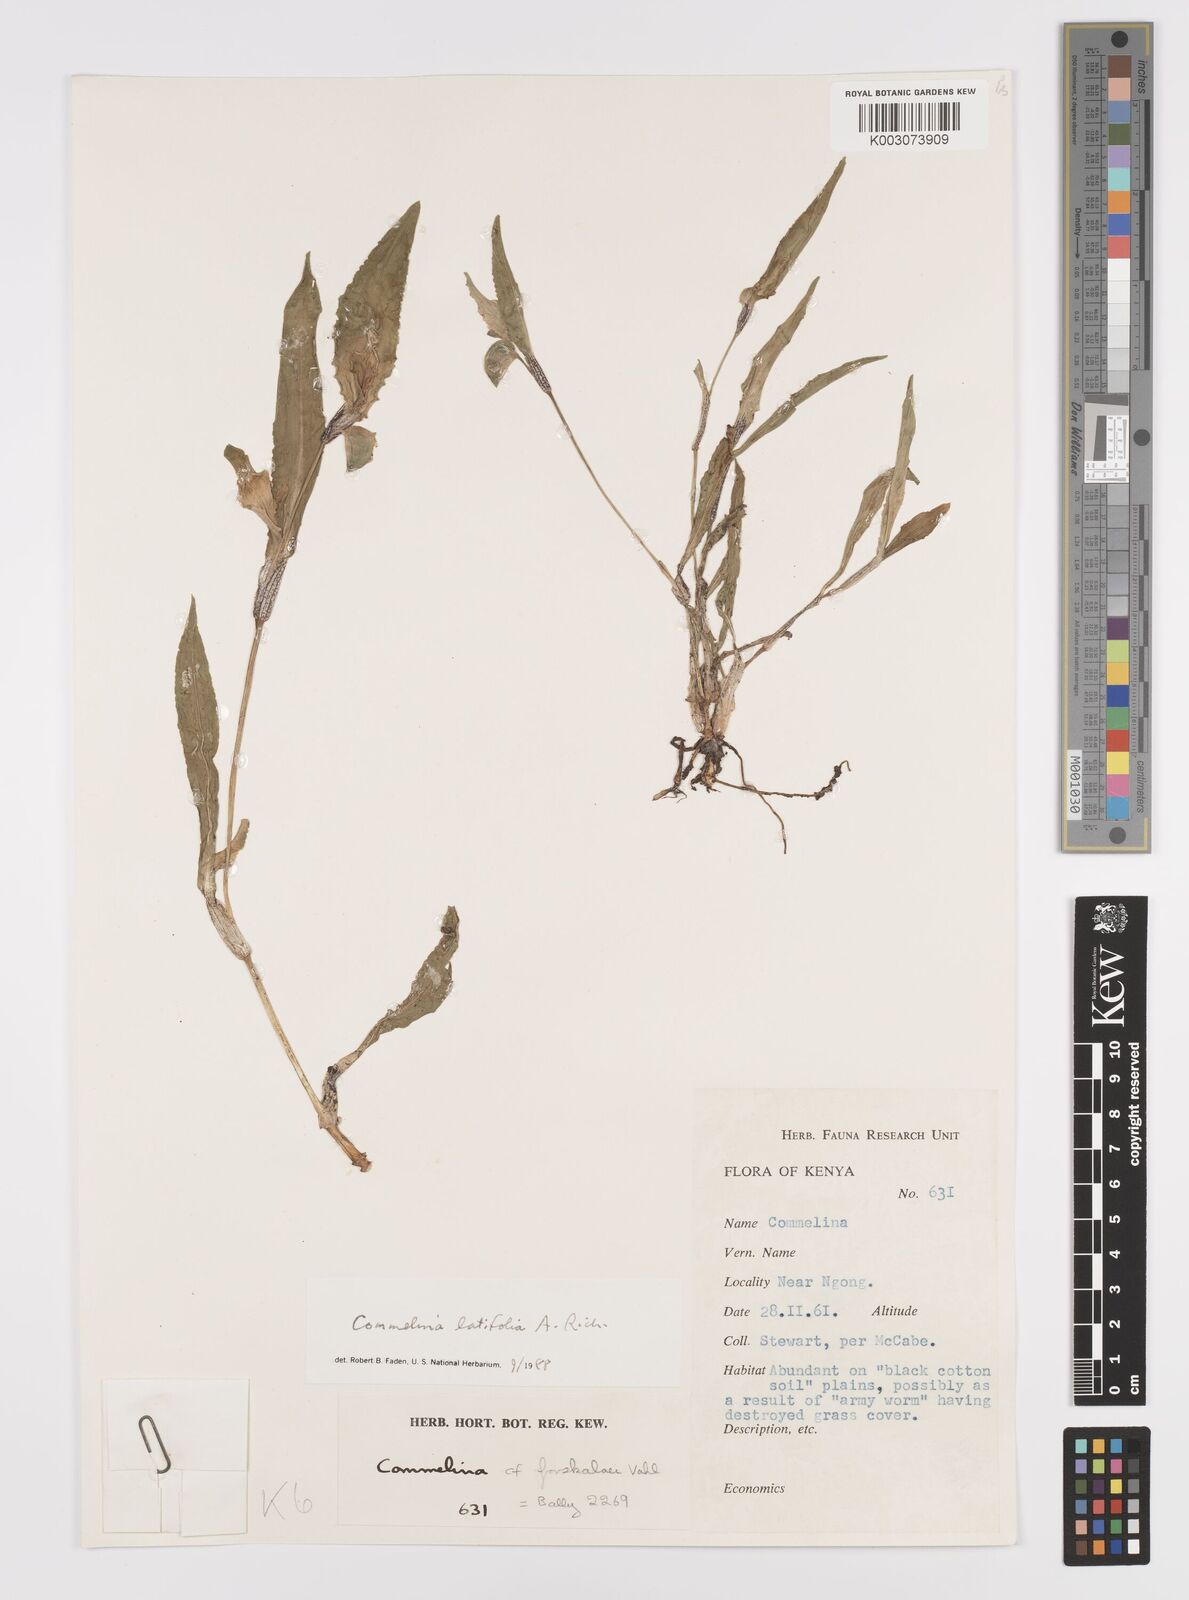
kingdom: Plantae
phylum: Tracheophyta
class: Liliopsida
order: Commelinales
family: Commelinaceae
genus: Commelina
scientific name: Commelina latifolia
